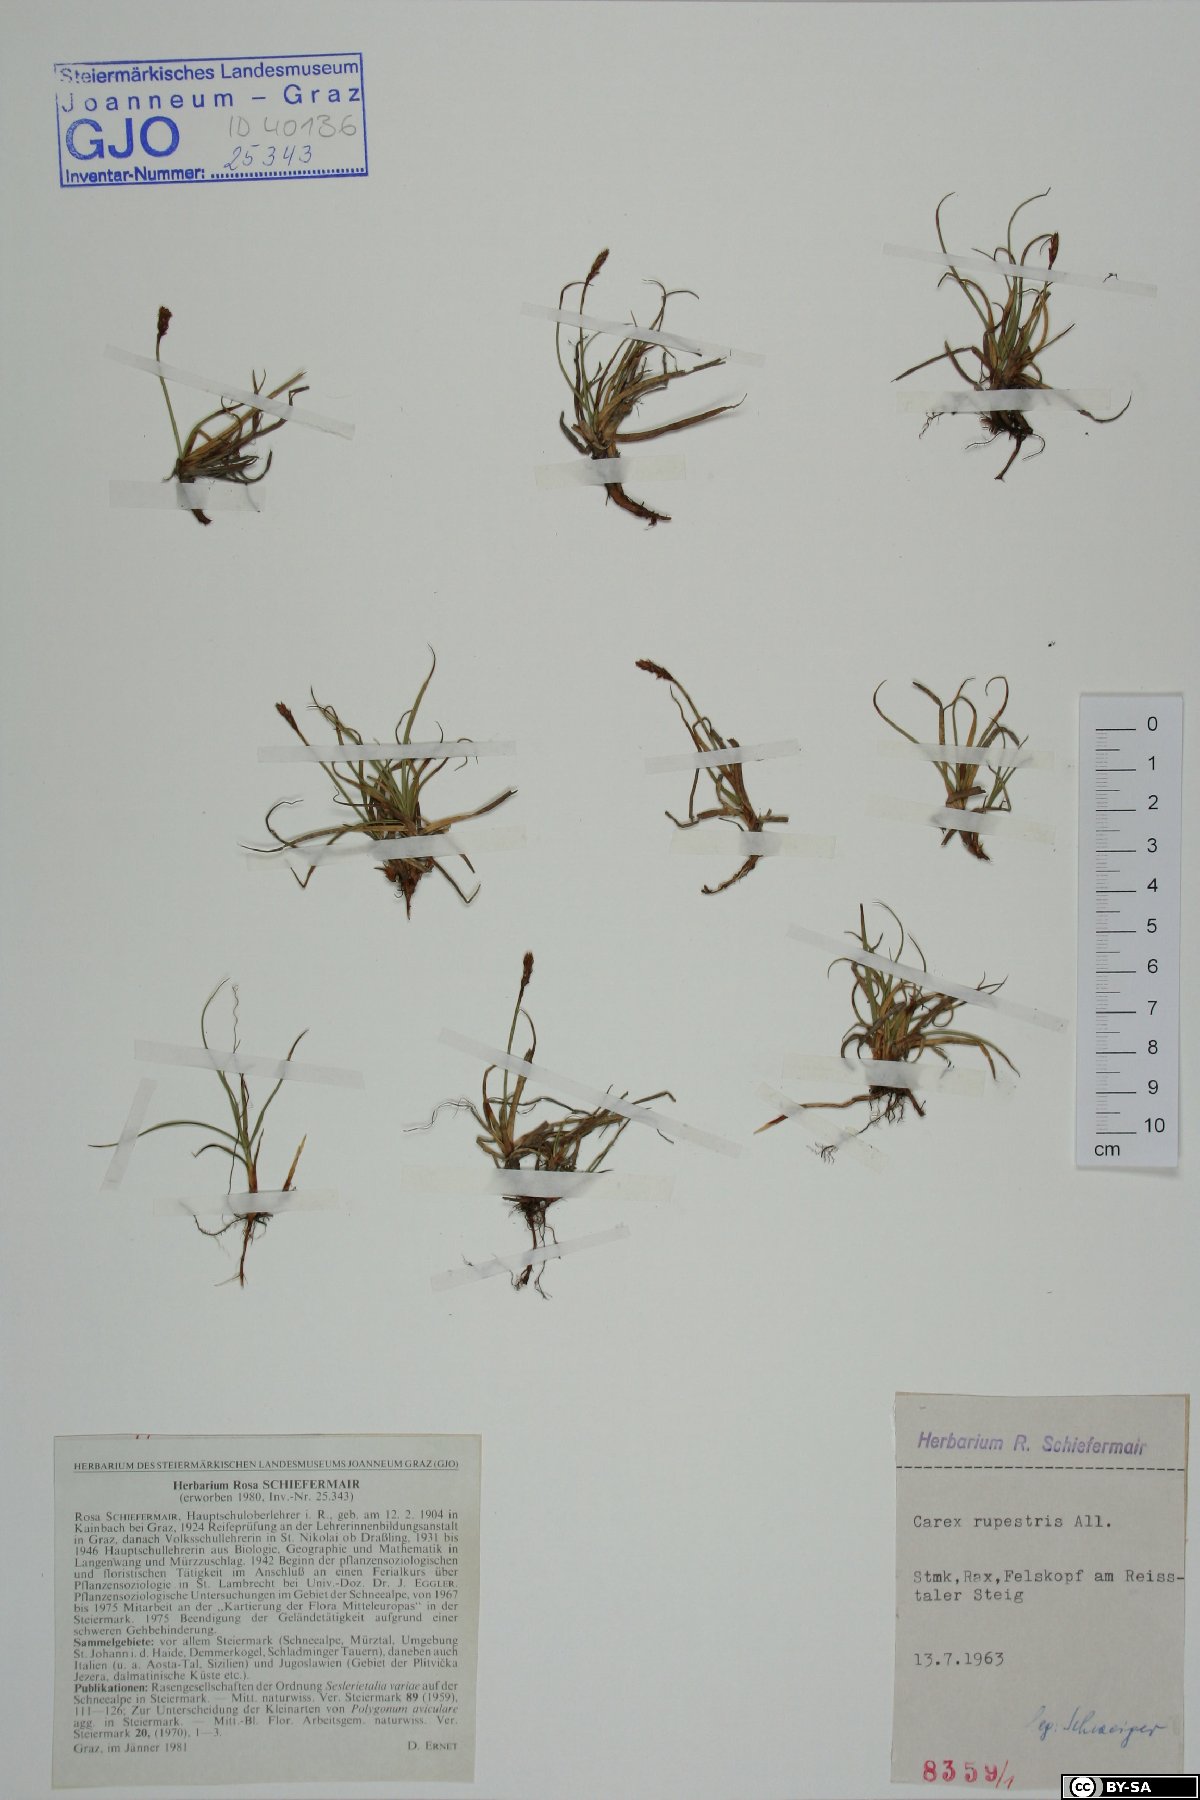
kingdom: Plantae
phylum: Tracheophyta
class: Liliopsida
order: Poales
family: Cyperaceae
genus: Carex
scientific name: Carex rupestris
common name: Rock sedge
